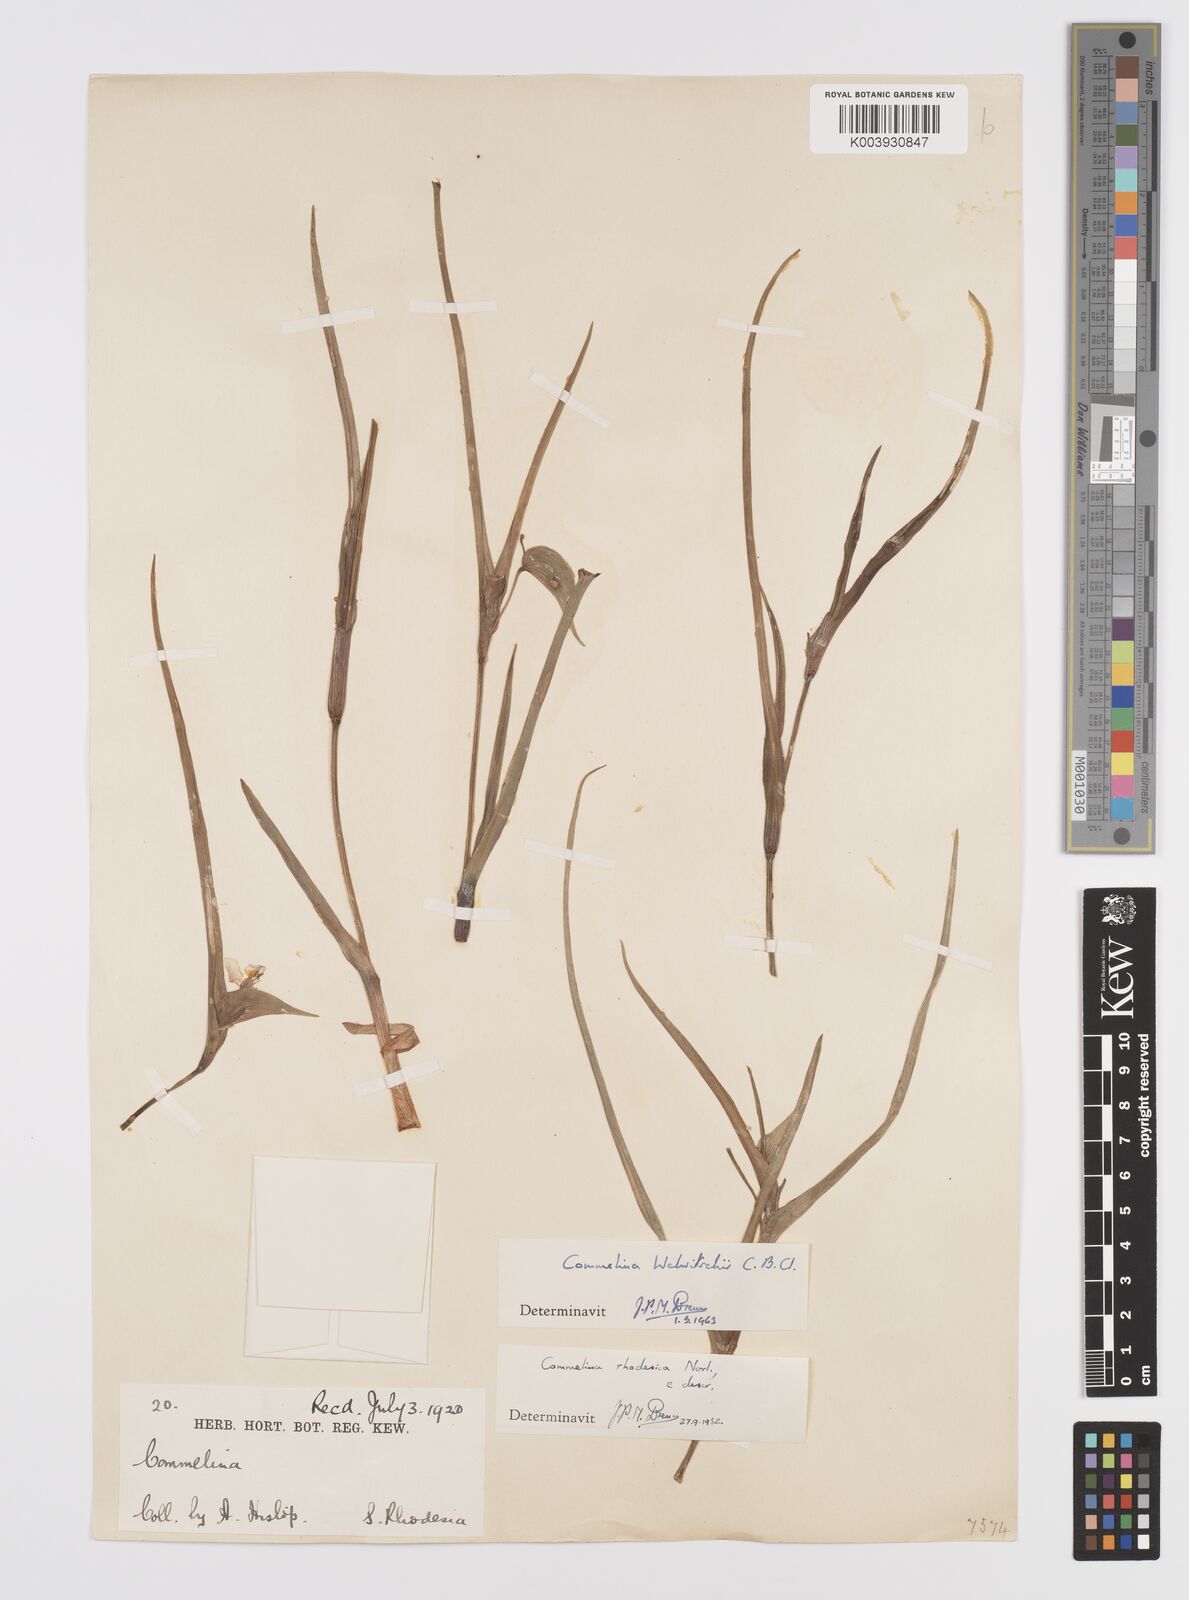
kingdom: Plantae
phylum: Tracheophyta
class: Liliopsida
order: Commelinales
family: Commelinaceae
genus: Commelina
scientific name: Commelina welwitschii
